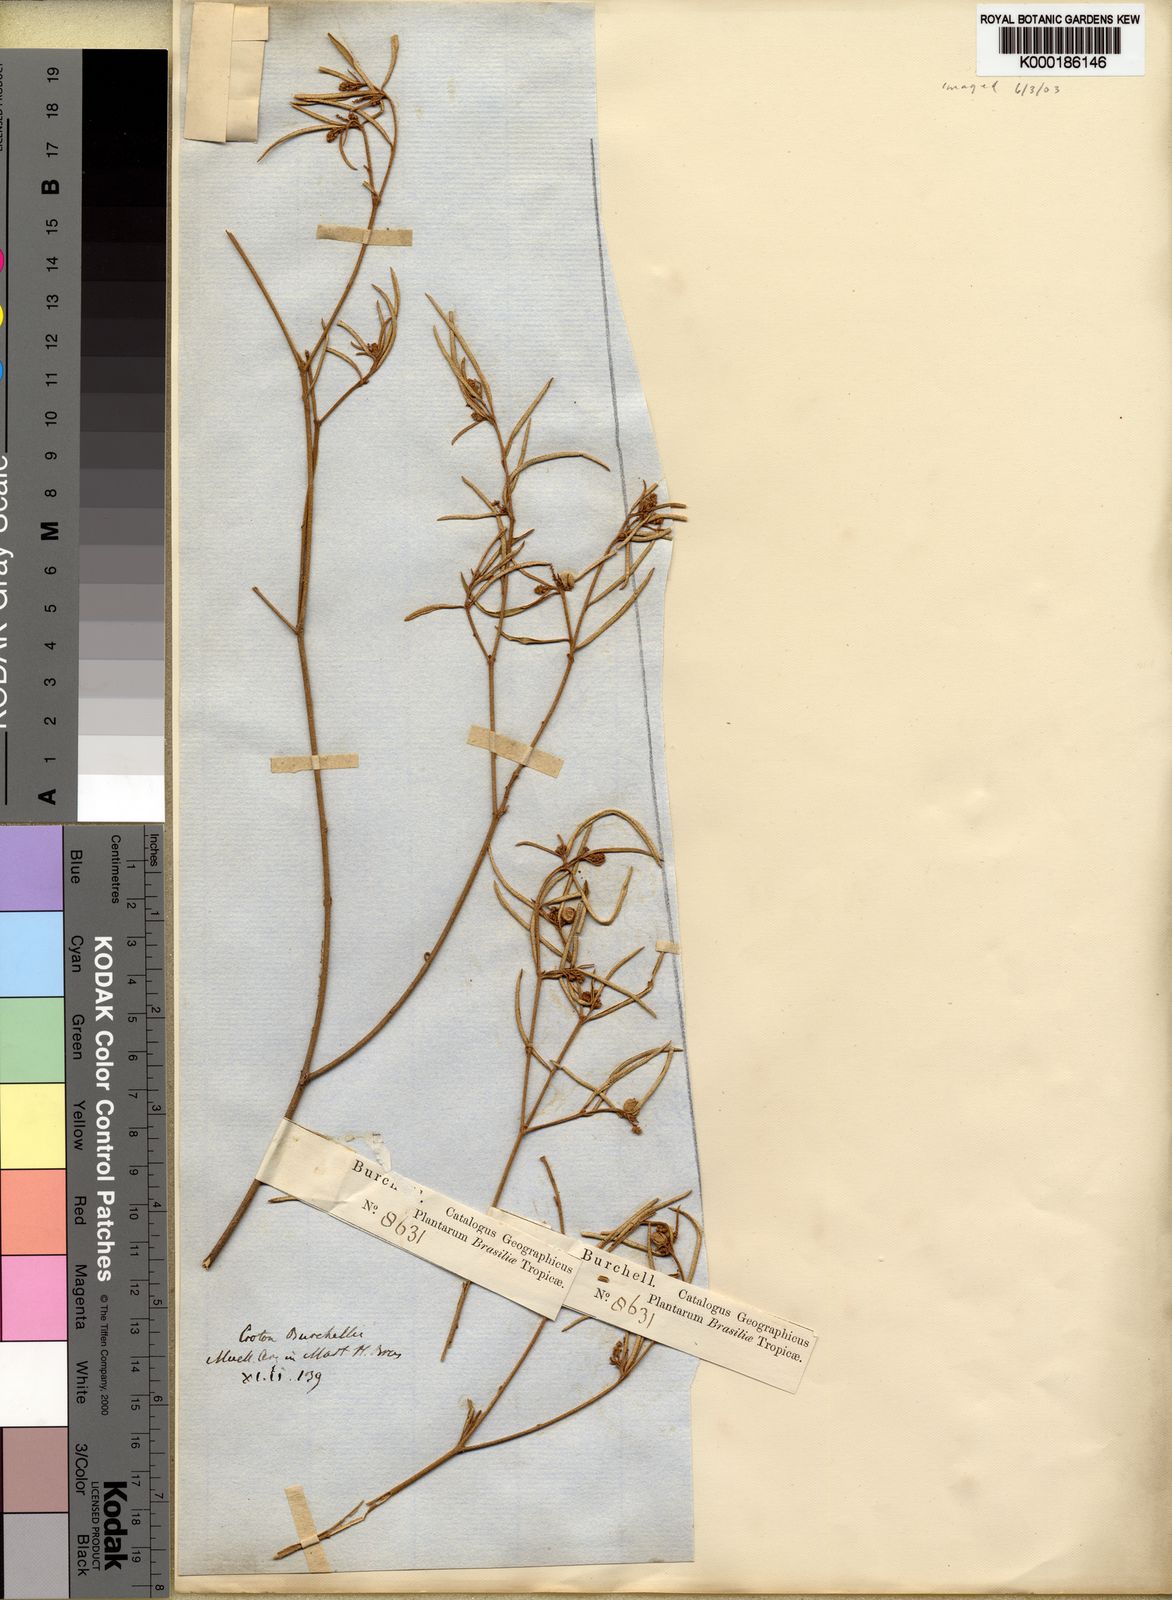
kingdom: Plantae
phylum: Tracheophyta
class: Magnoliopsida
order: Malpighiales
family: Euphorbiaceae
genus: Croton
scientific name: Croton
